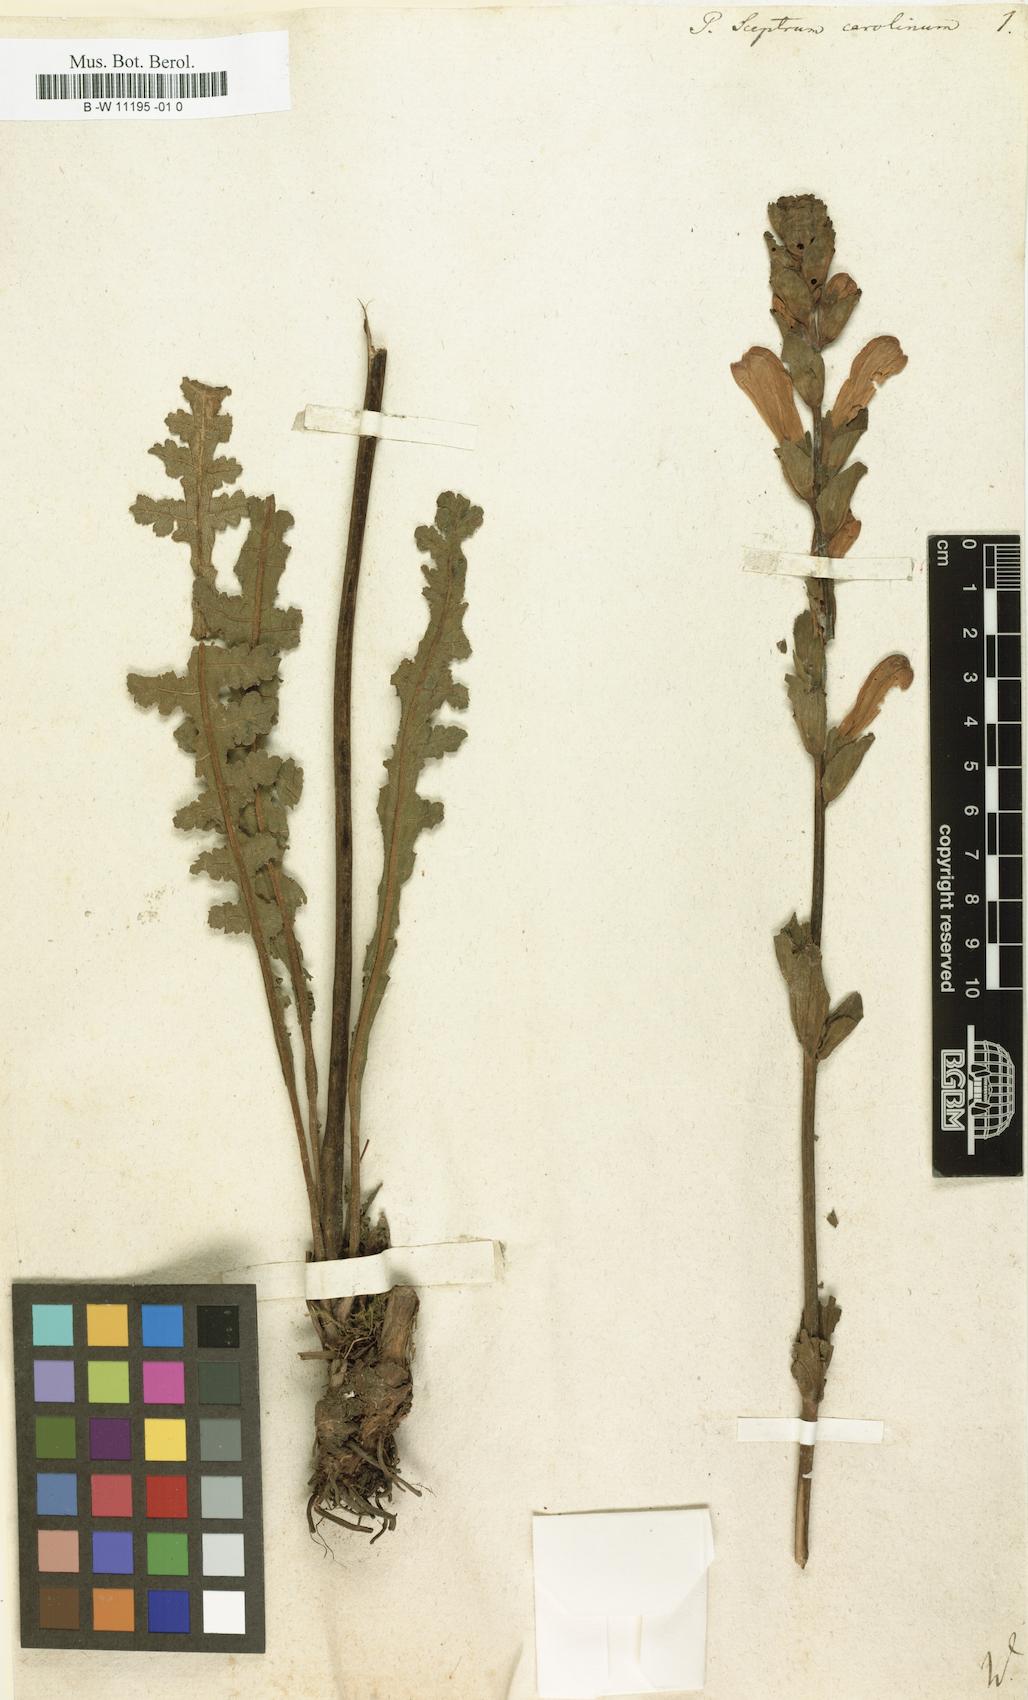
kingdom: Plantae
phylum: Tracheophyta
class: Magnoliopsida
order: Lamiales
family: Orobanchaceae
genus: Pedicularis
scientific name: Pedicularis sceptrum-carolinum
